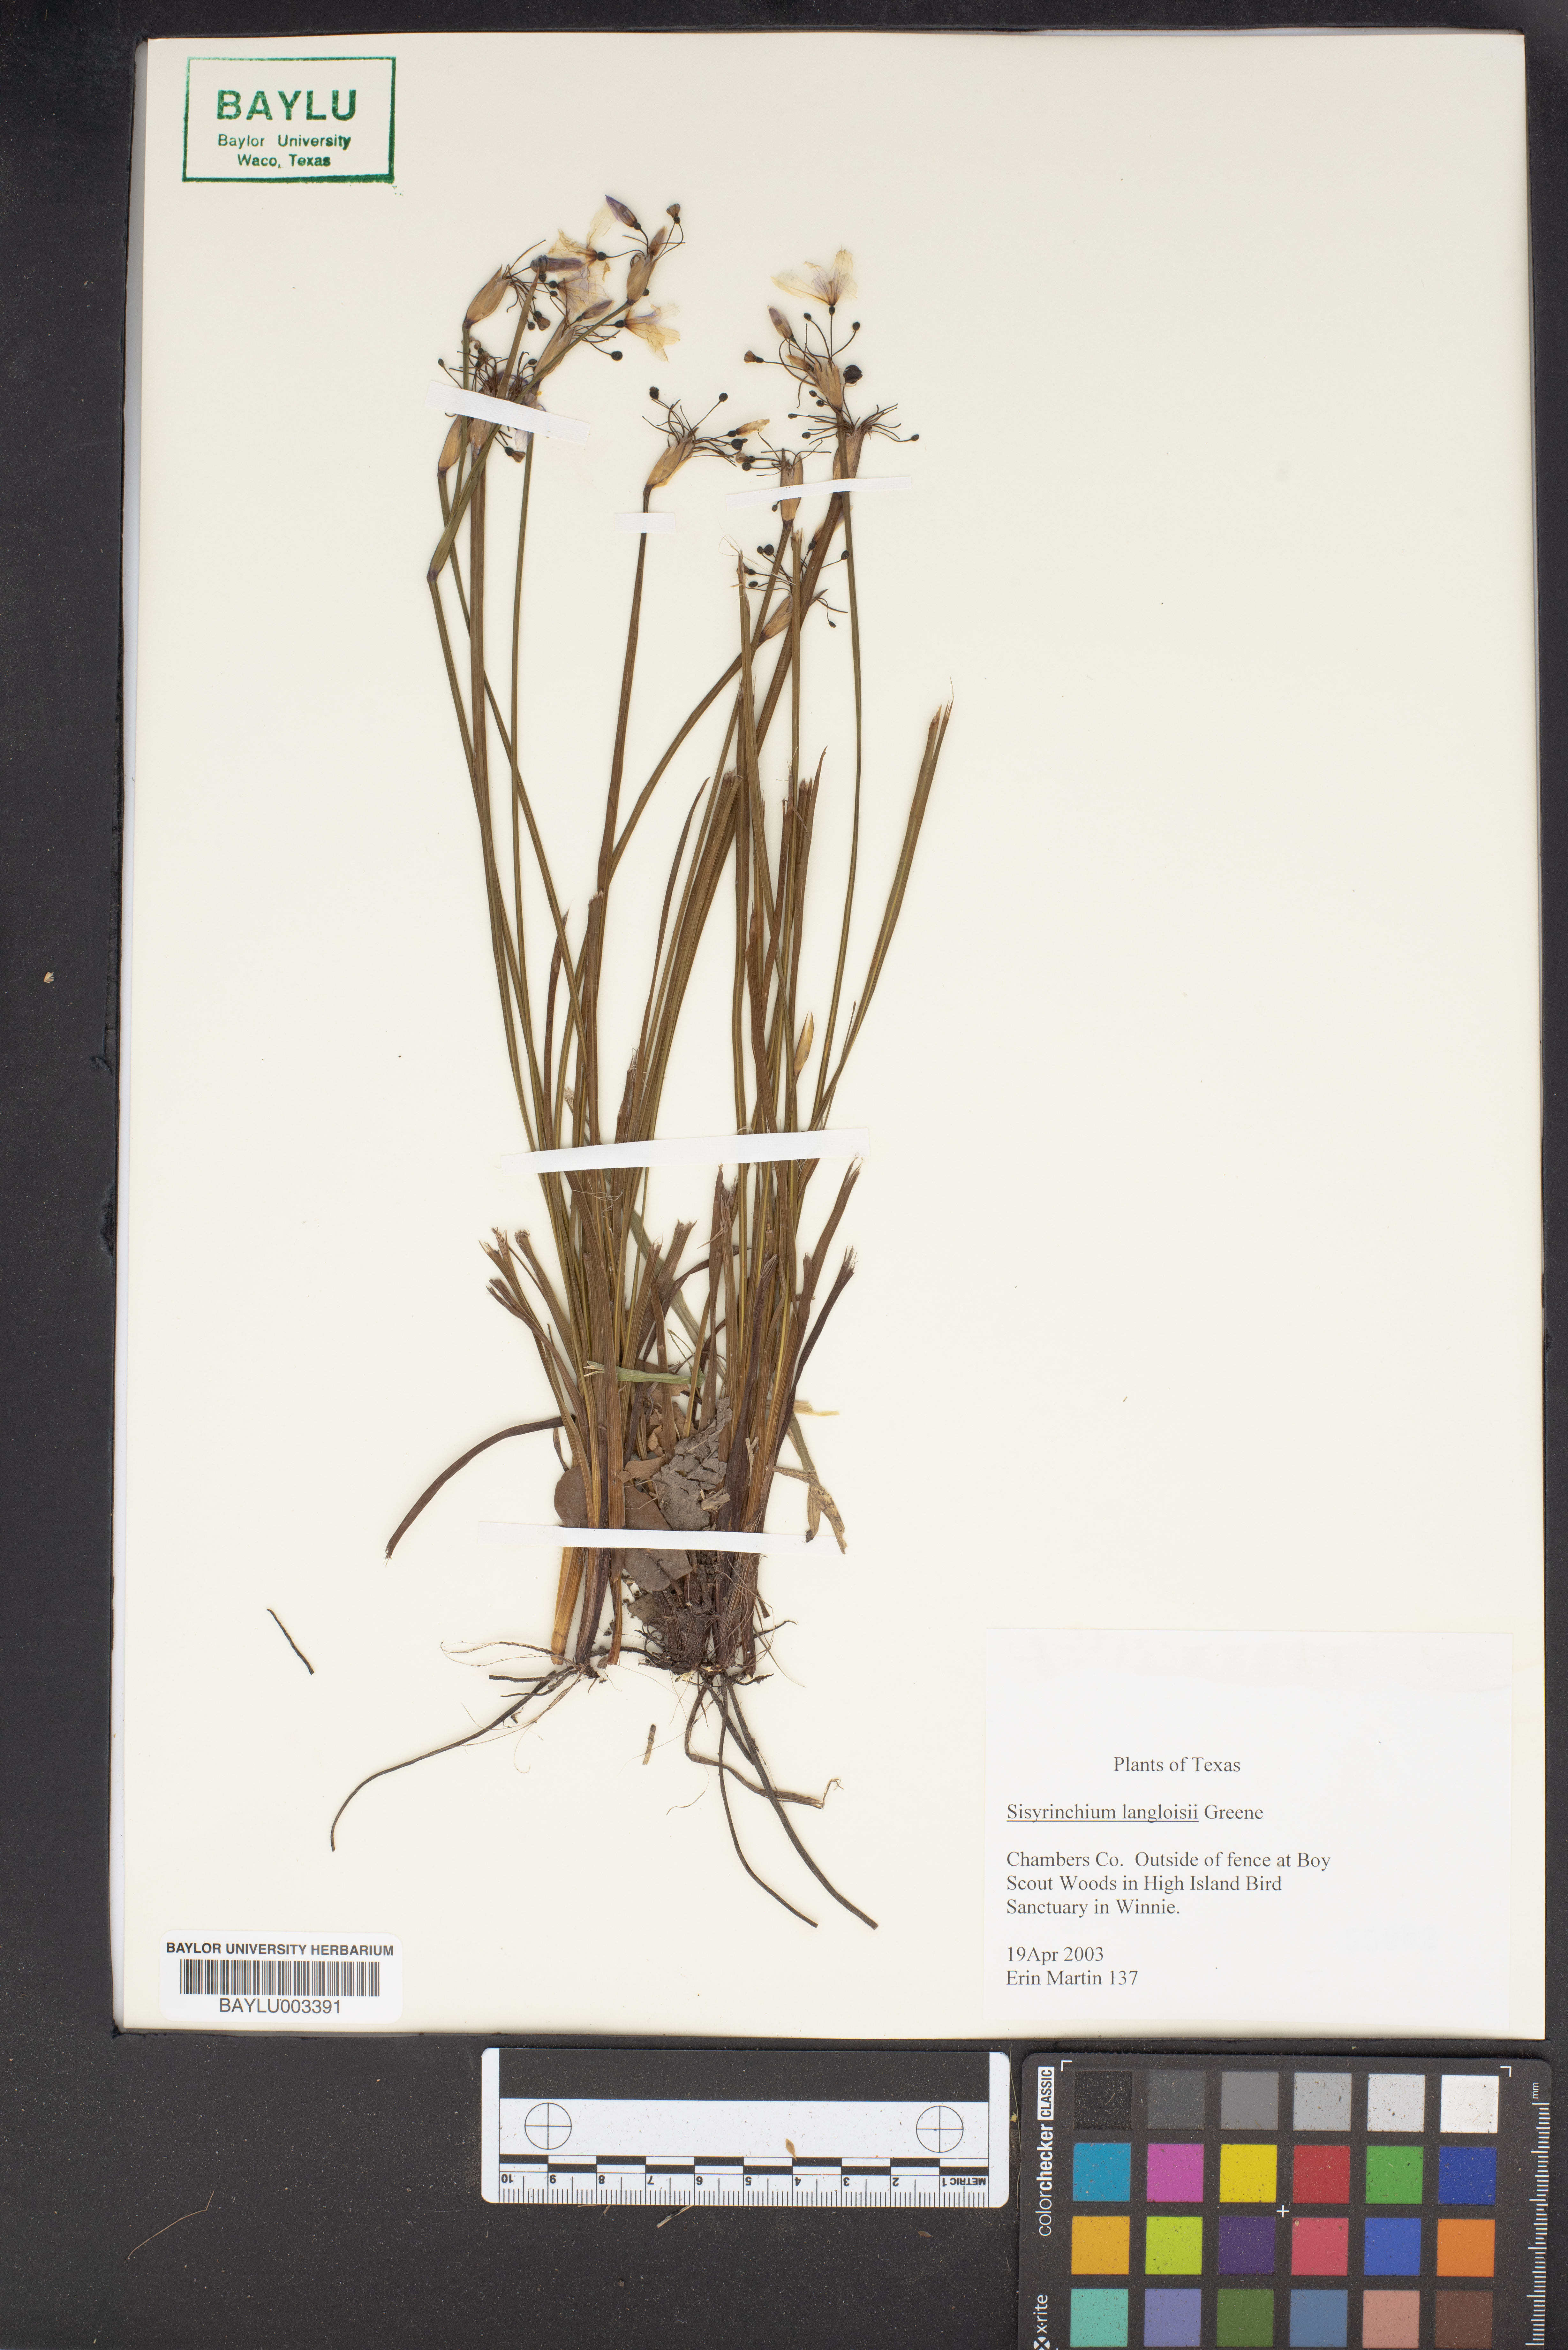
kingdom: Plantae
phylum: Tracheophyta
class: Liliopsida
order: Asparagales
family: Iridaceae
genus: Sisyrinchium
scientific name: Sisyrinchium langloisii
